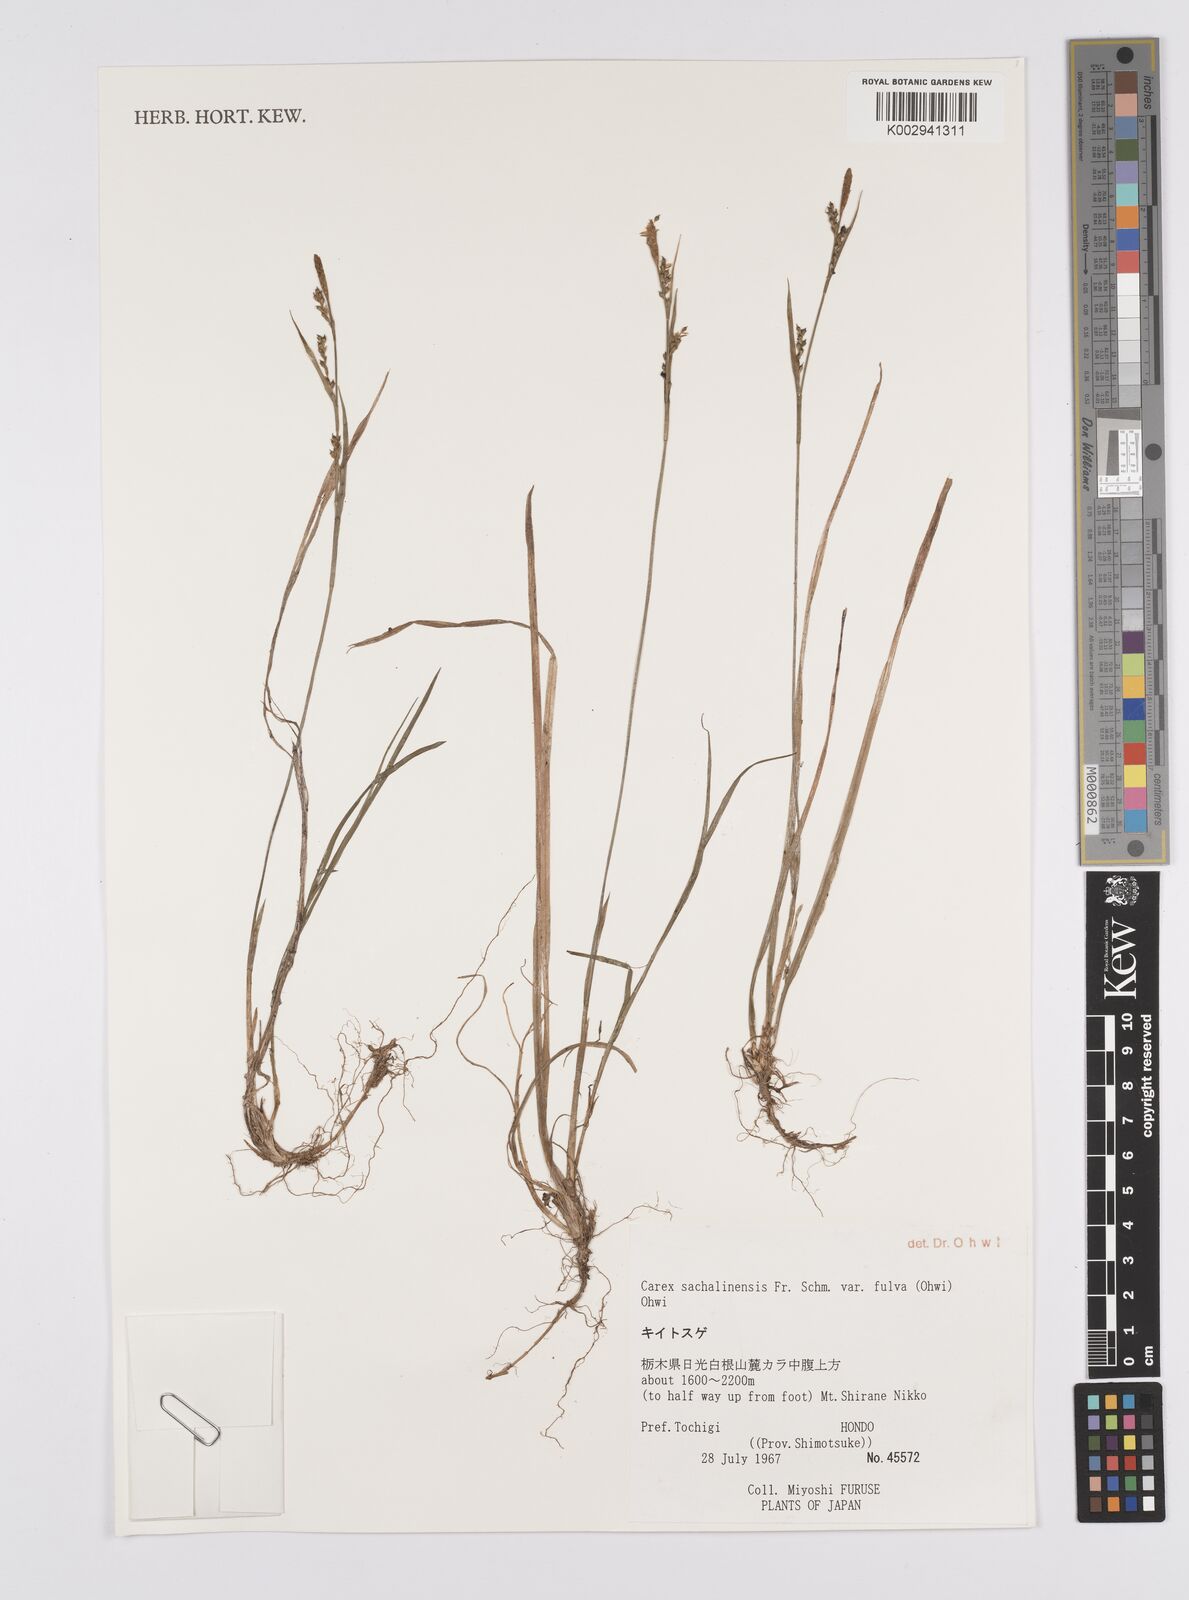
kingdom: Plantae
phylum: Tracheophyta
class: Liliopsida
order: Poales
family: Cyperaceae
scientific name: Cyperaceae
